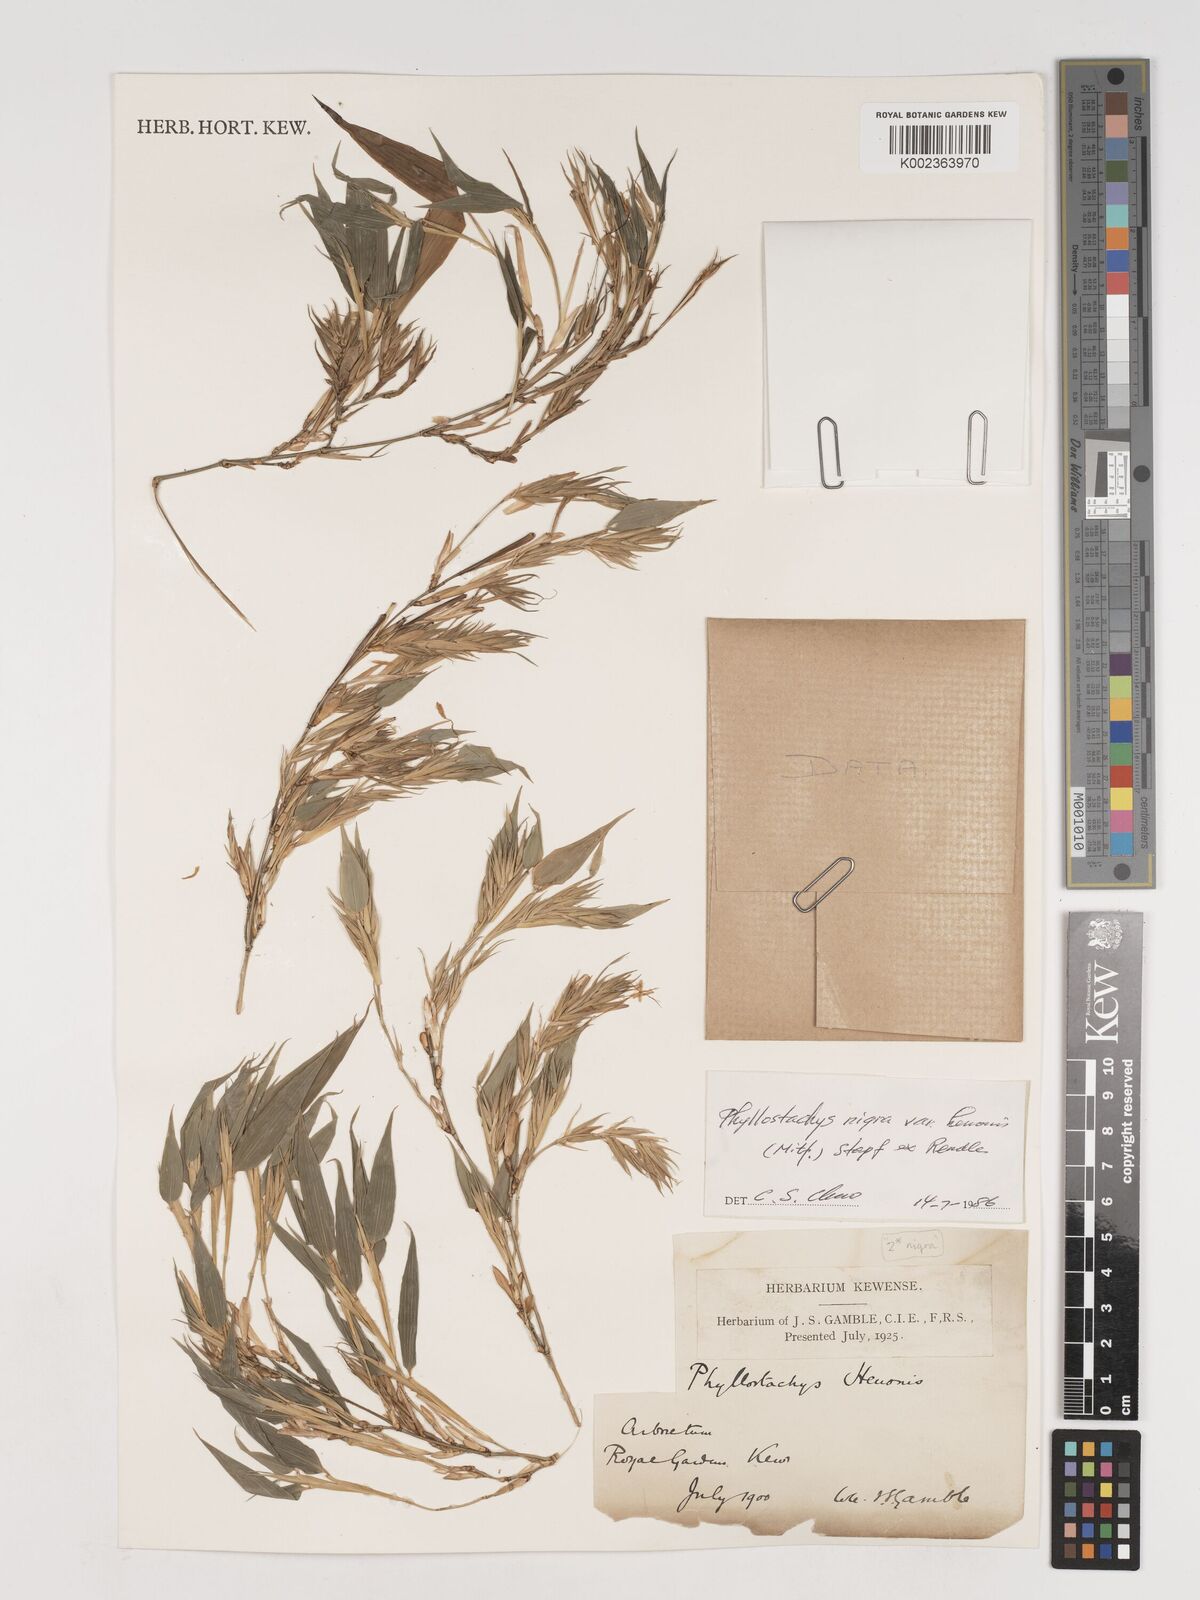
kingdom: Plantae
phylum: Tracheophyta
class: Liliopsida
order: Poales
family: Poaceae
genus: Phyllostachys
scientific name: Phyllostachys nigra
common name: Black bamboo
